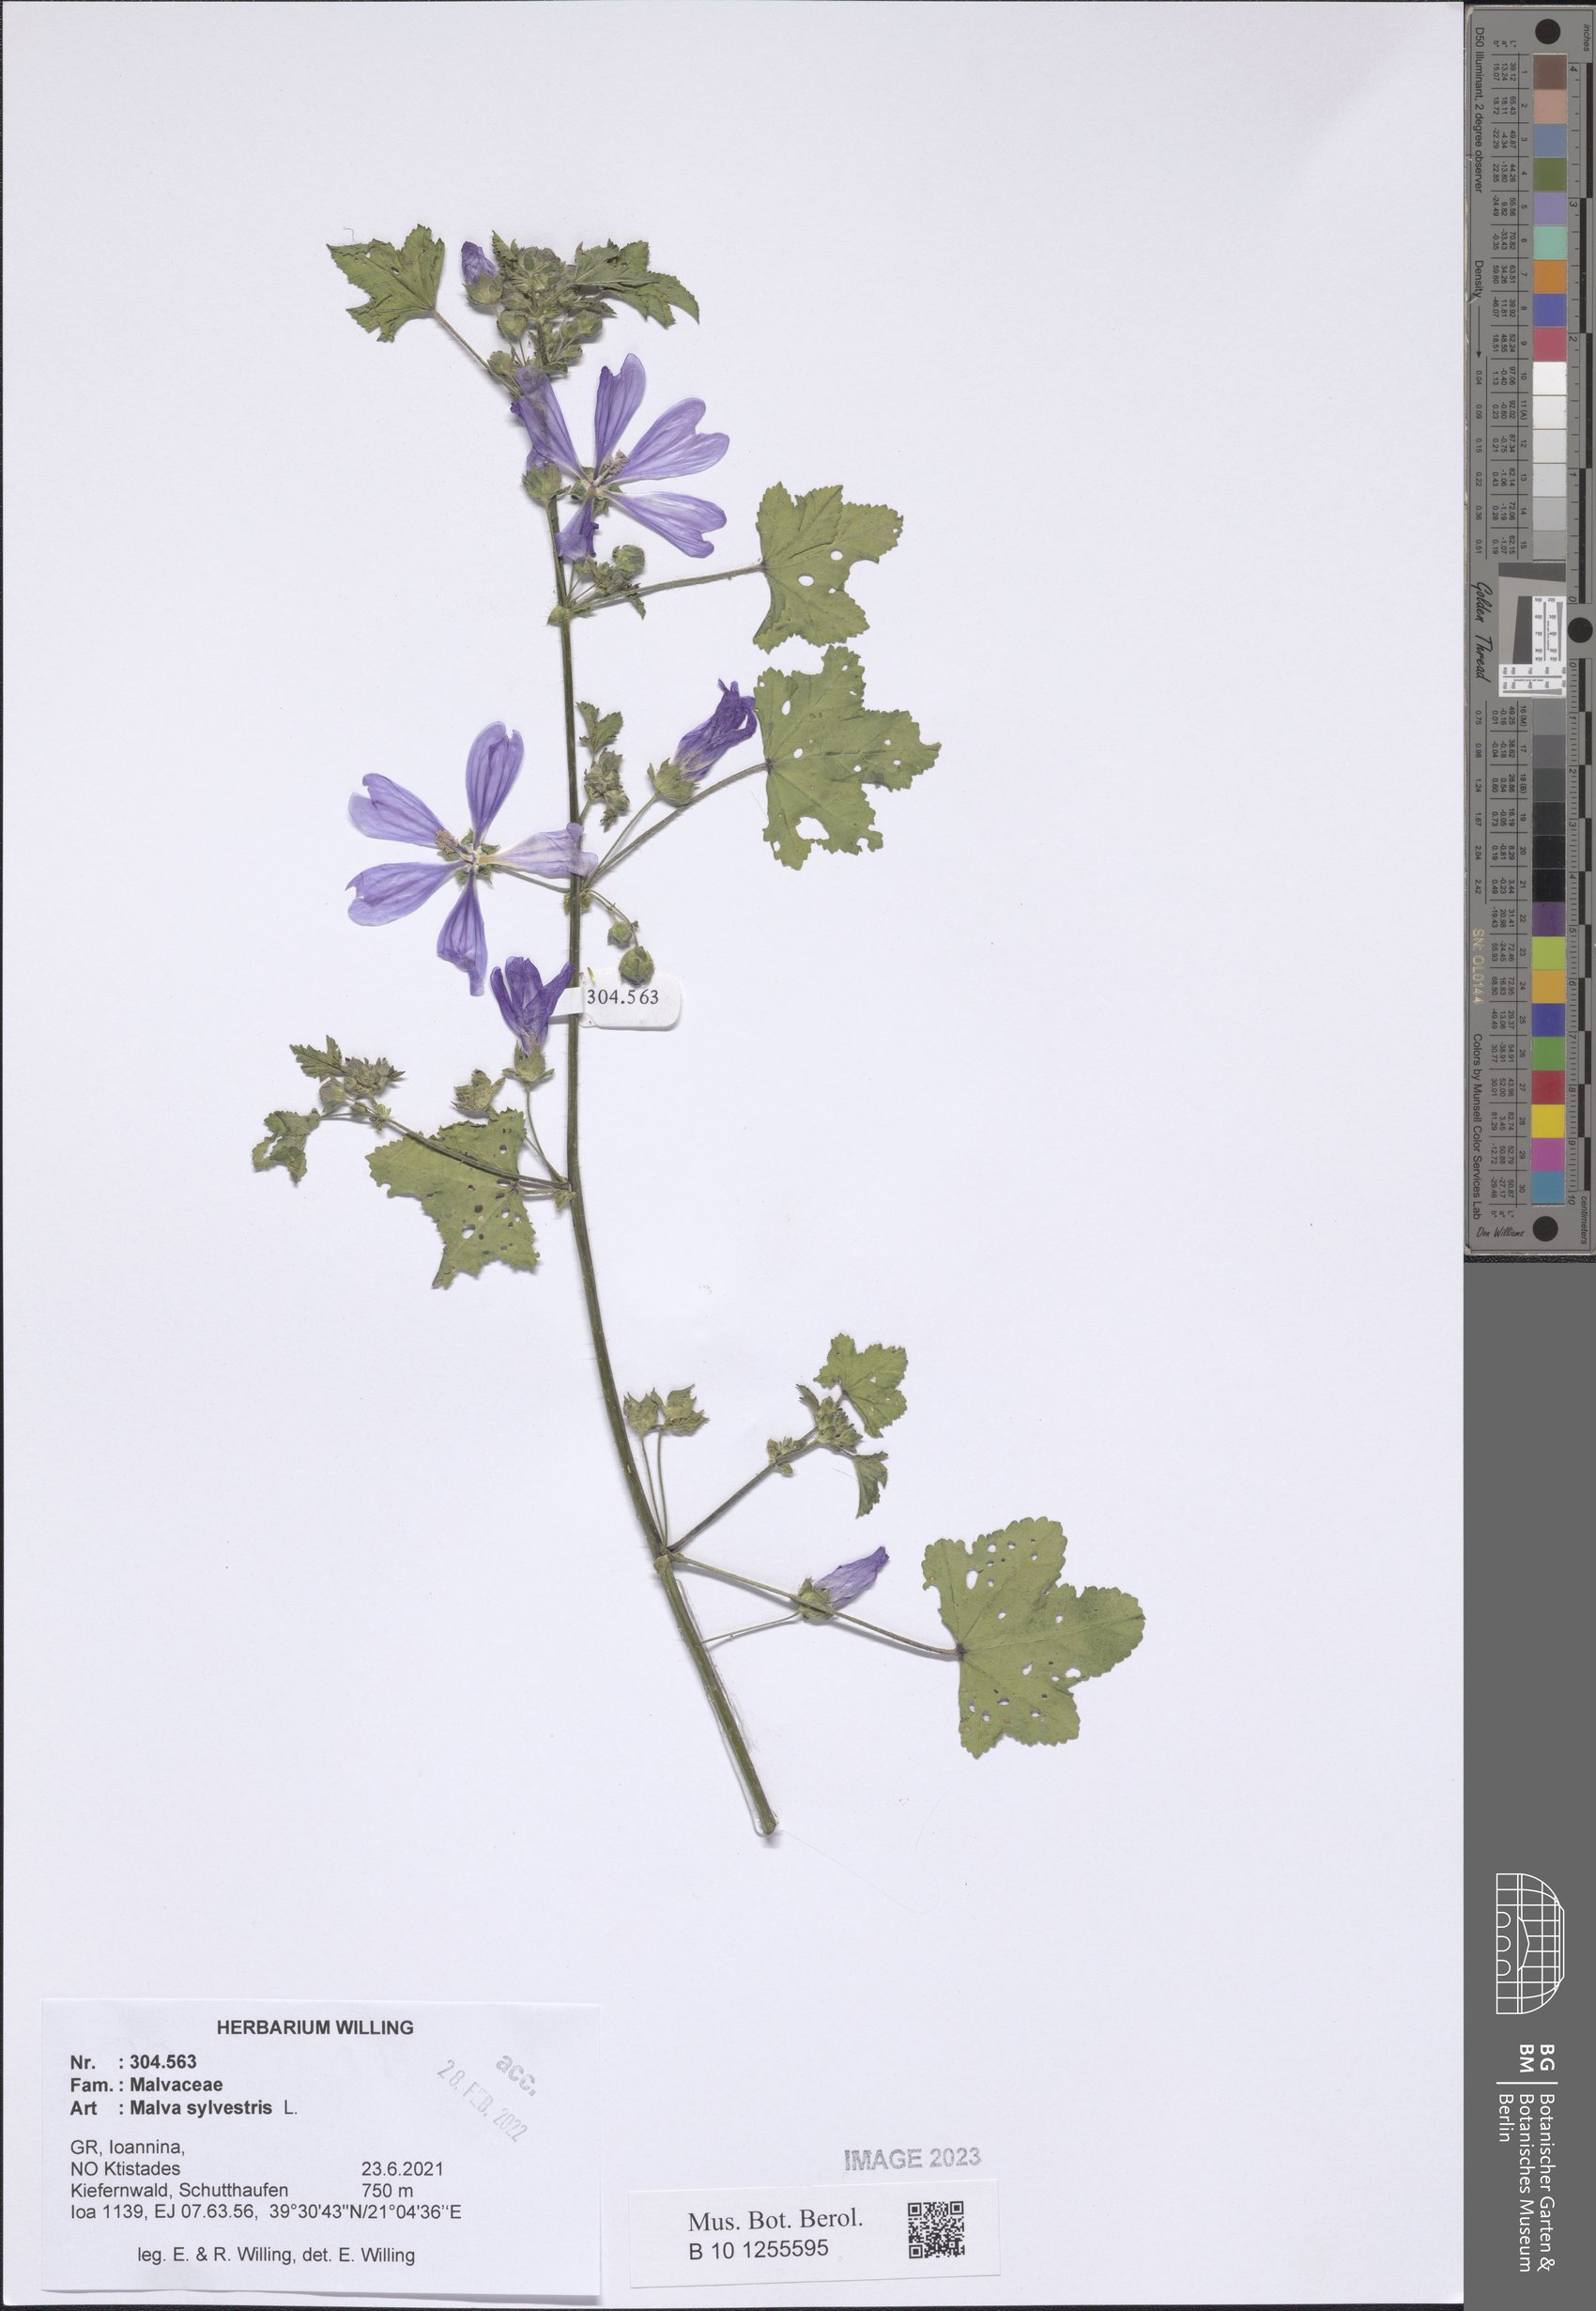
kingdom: Plantae
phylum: Tracheophyta
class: Magnoliopsida
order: Malvales
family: Malvaceae
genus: Malva
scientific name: Malva sylvestris
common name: Common mallow
